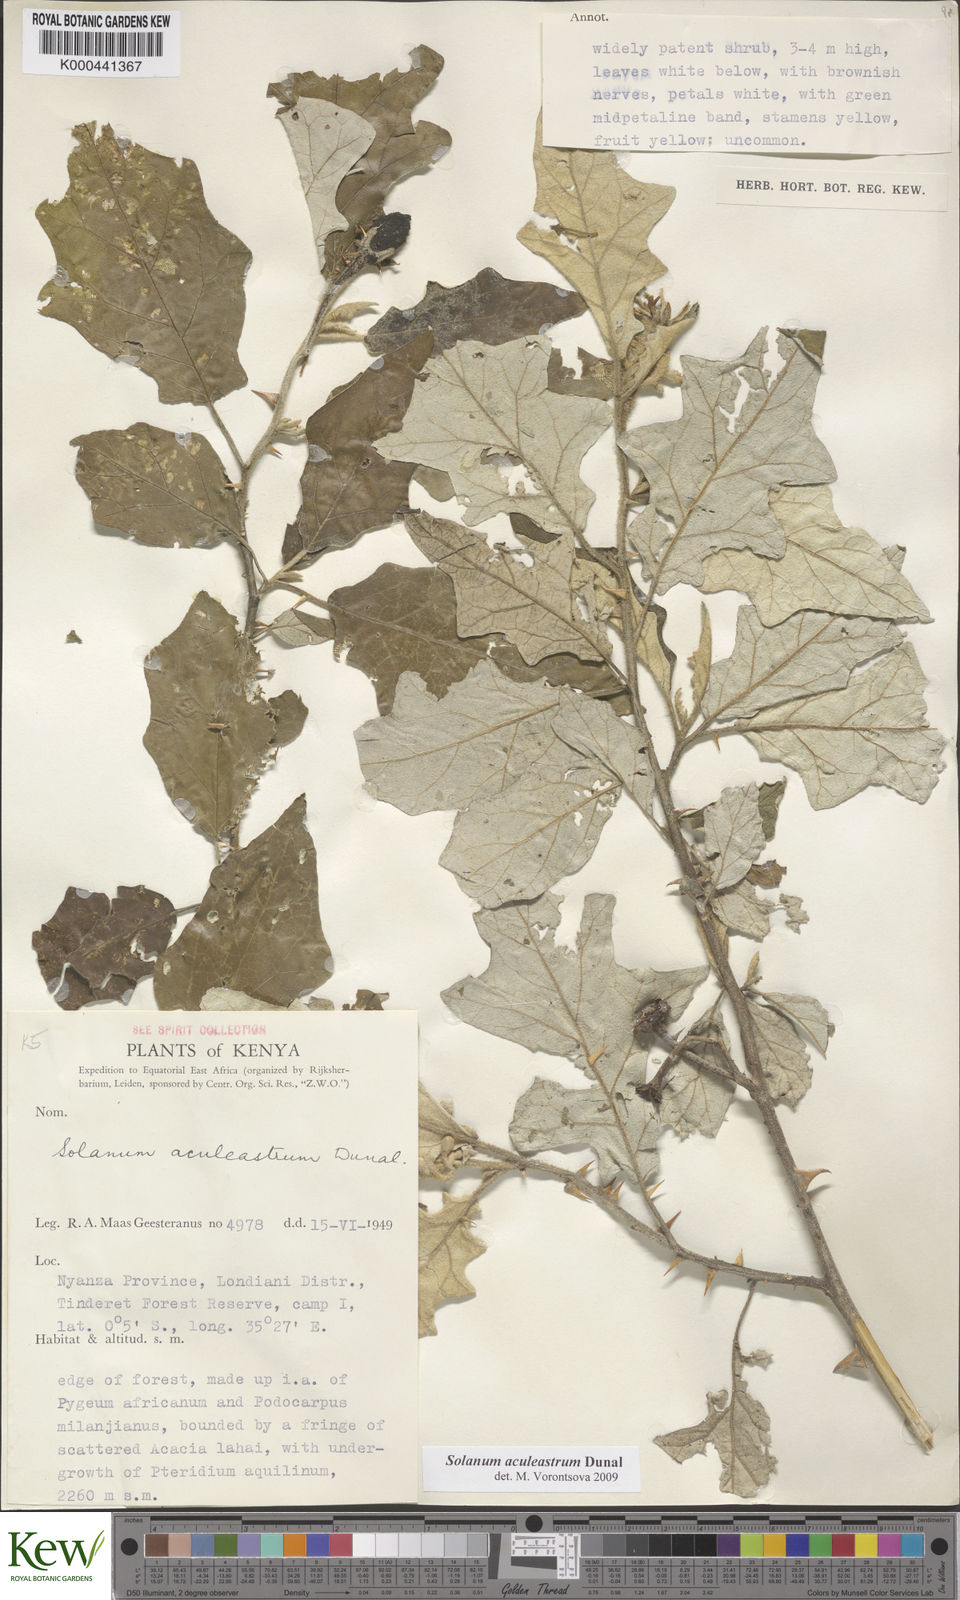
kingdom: Plantae
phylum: Tracheophyta
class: Magnoliopsida
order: Solanales
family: Solanaceae
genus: Solanum
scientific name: Solanum aculeastrum
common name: Goat bitter-apple
